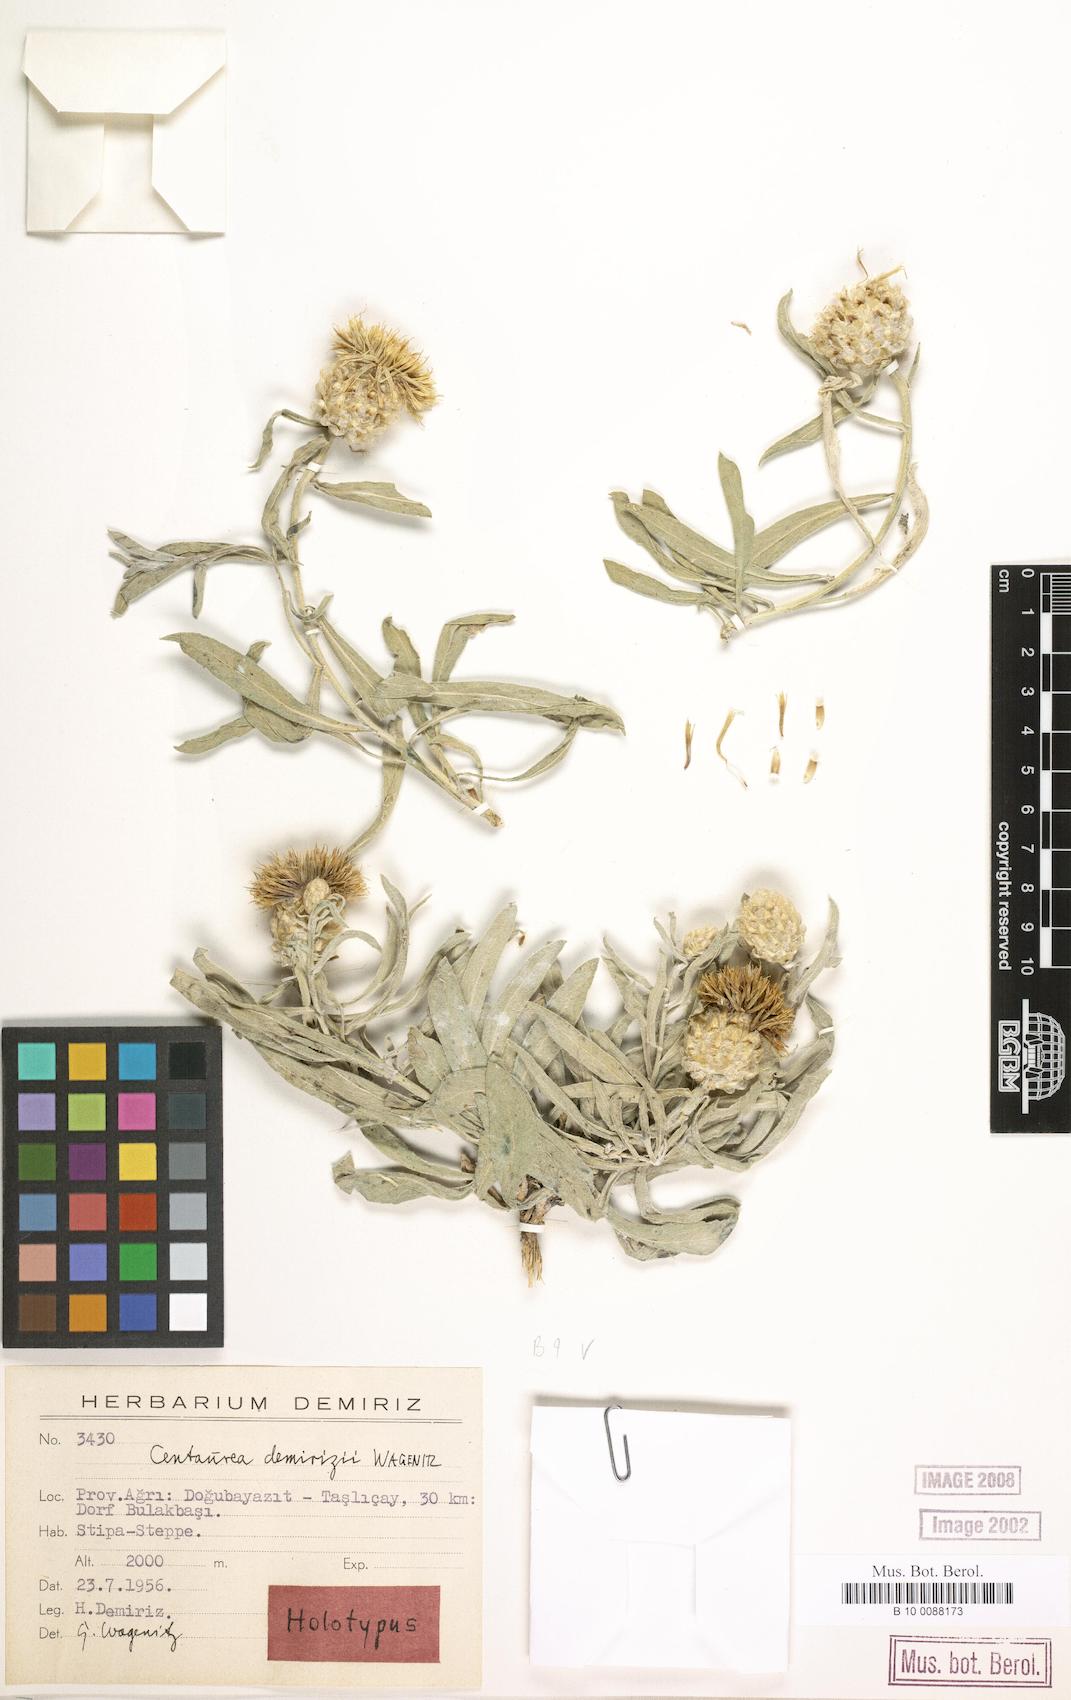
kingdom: Plantae
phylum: Tracheophyta
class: Magnoliopsida
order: Asterales
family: Asteraceae
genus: Centaurea
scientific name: Centaurea demirizii
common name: Demiriz's centaury
